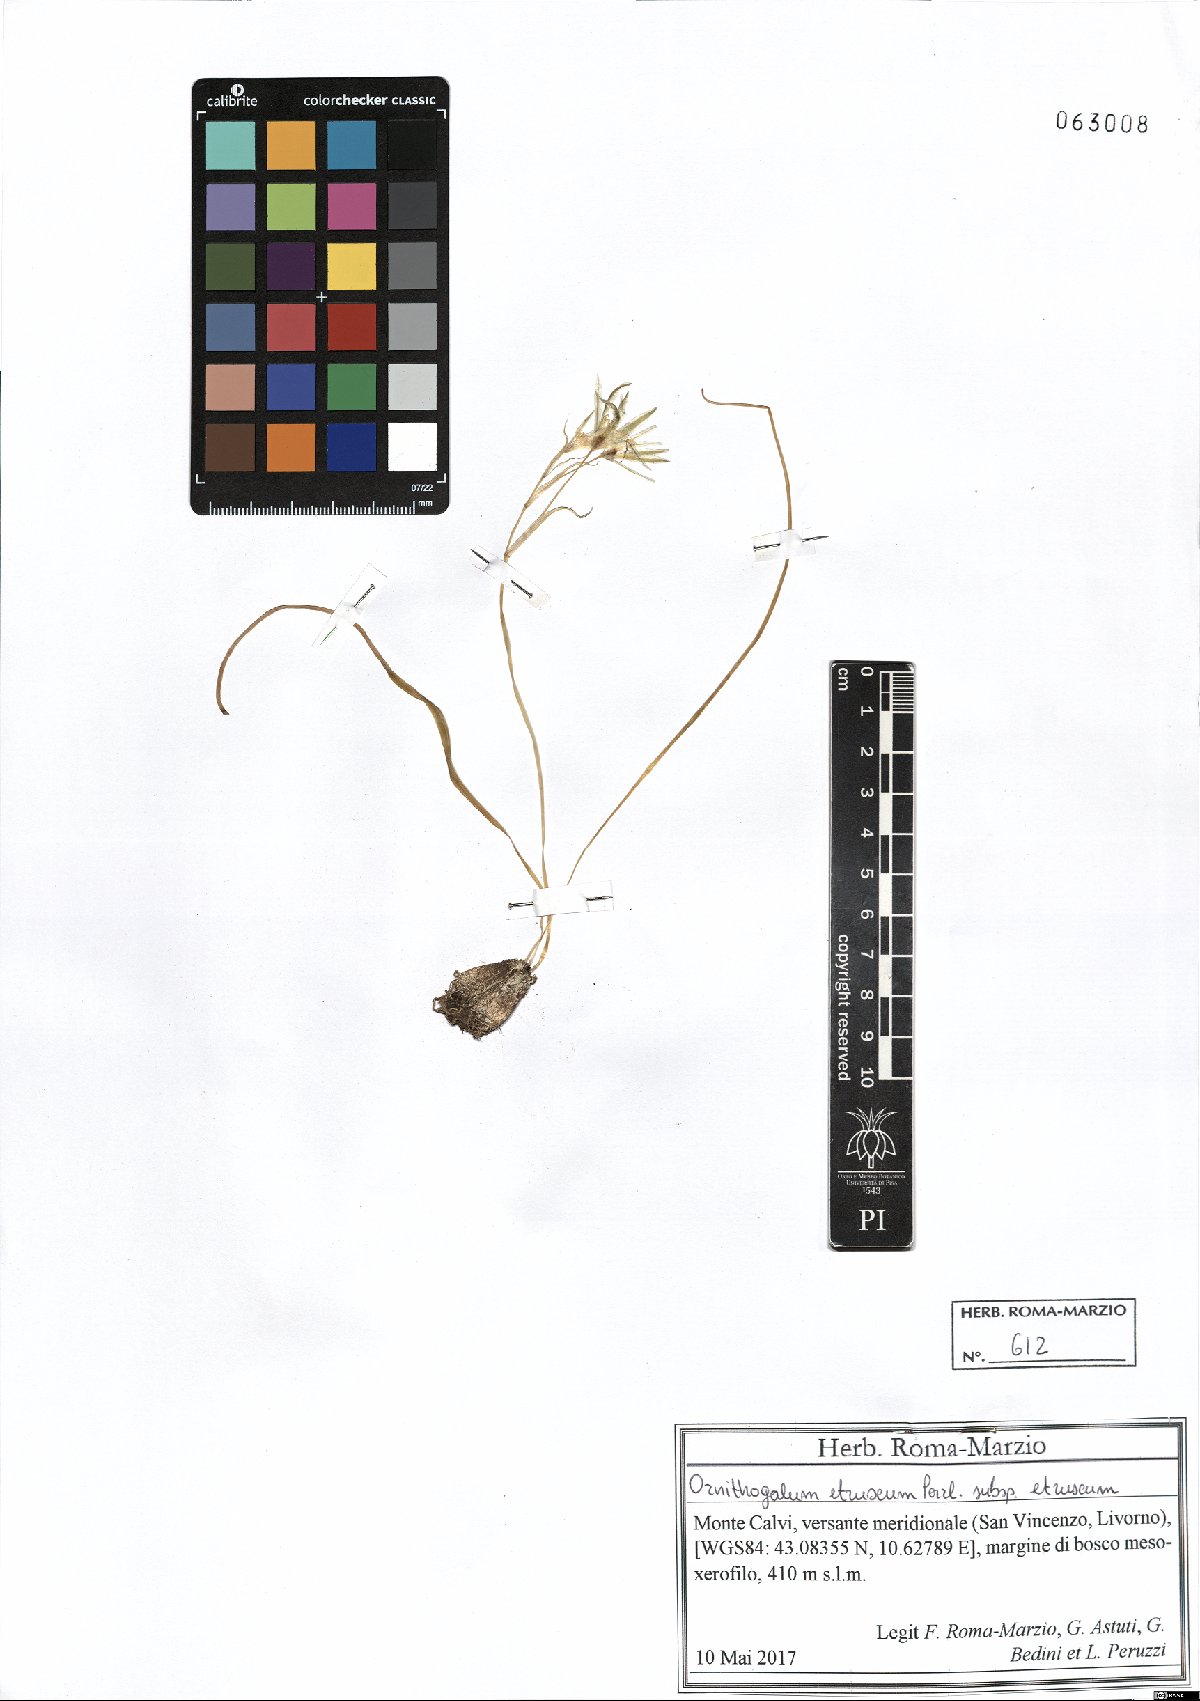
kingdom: Plantae
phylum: Tracheophyta
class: Liliopsida
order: Asparagales
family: Asparagaceae
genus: Ornithogalum
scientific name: Ornithogalum orthophyllum
